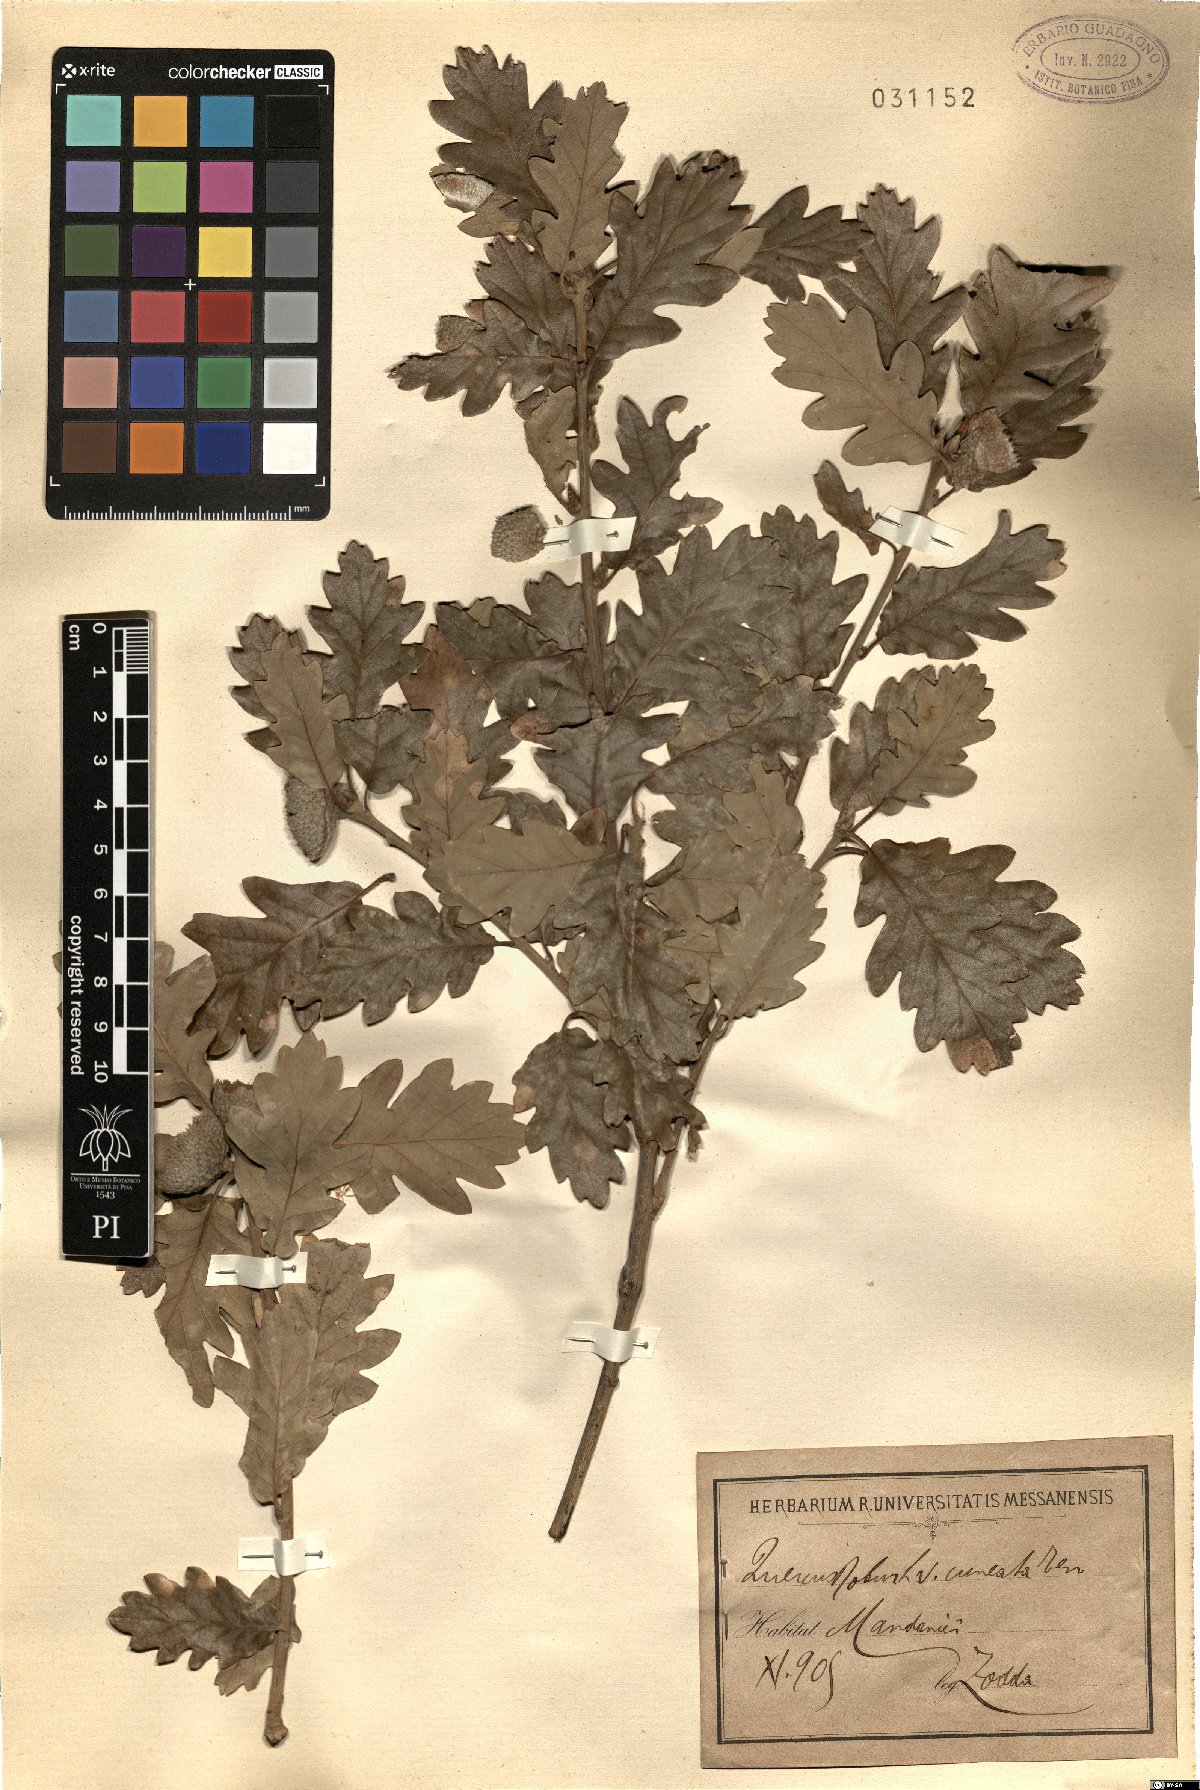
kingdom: Plantae
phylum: Tracheophyta
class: Magnoliopsida
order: Fagales
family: Fagaceae
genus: Quercus
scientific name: Quercus aurea
